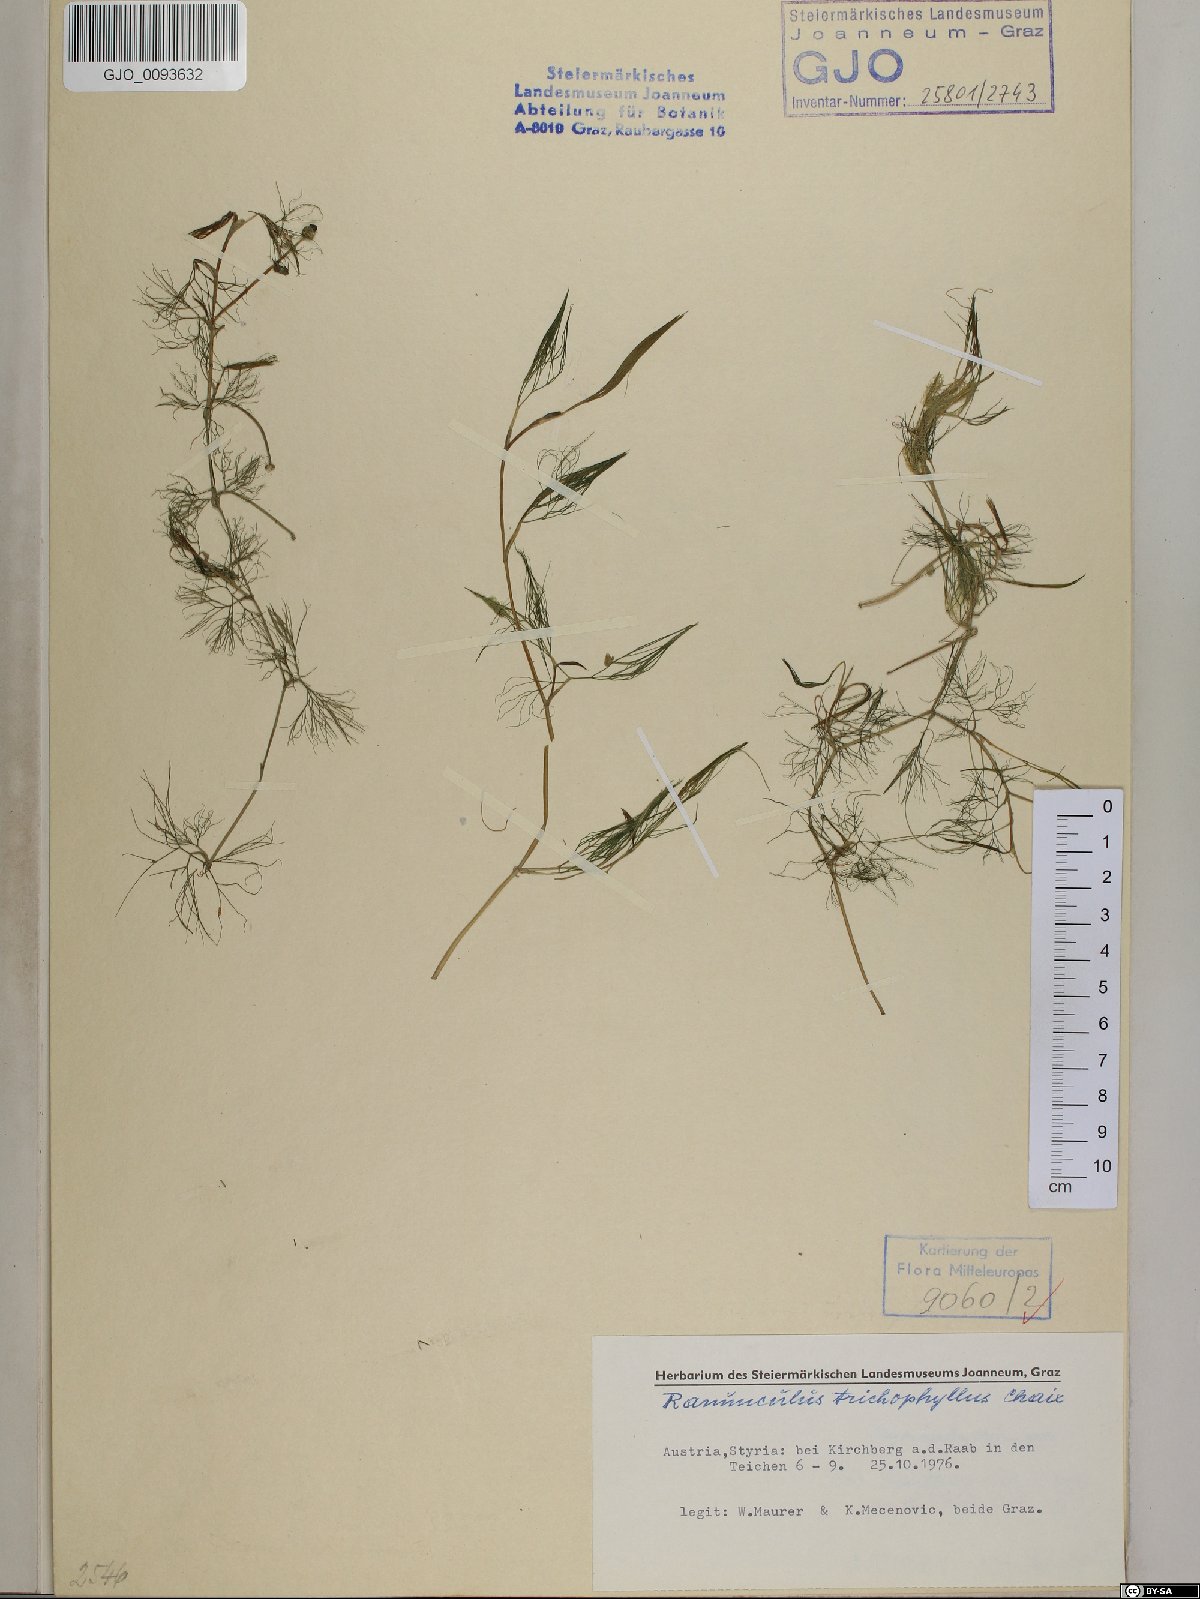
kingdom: Plantae
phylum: Tracheophyta
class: Magnoliopsida
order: Ranunculales
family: Ranunculaceae
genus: Ranunculus
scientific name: Ranunculus trichophyllus
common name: Thread-leaved water-crowfoot
